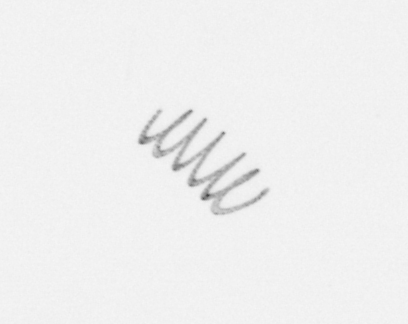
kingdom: Chromista
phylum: Ochrophyta
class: Bacillariophyceae
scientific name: Bacillariophyceae
